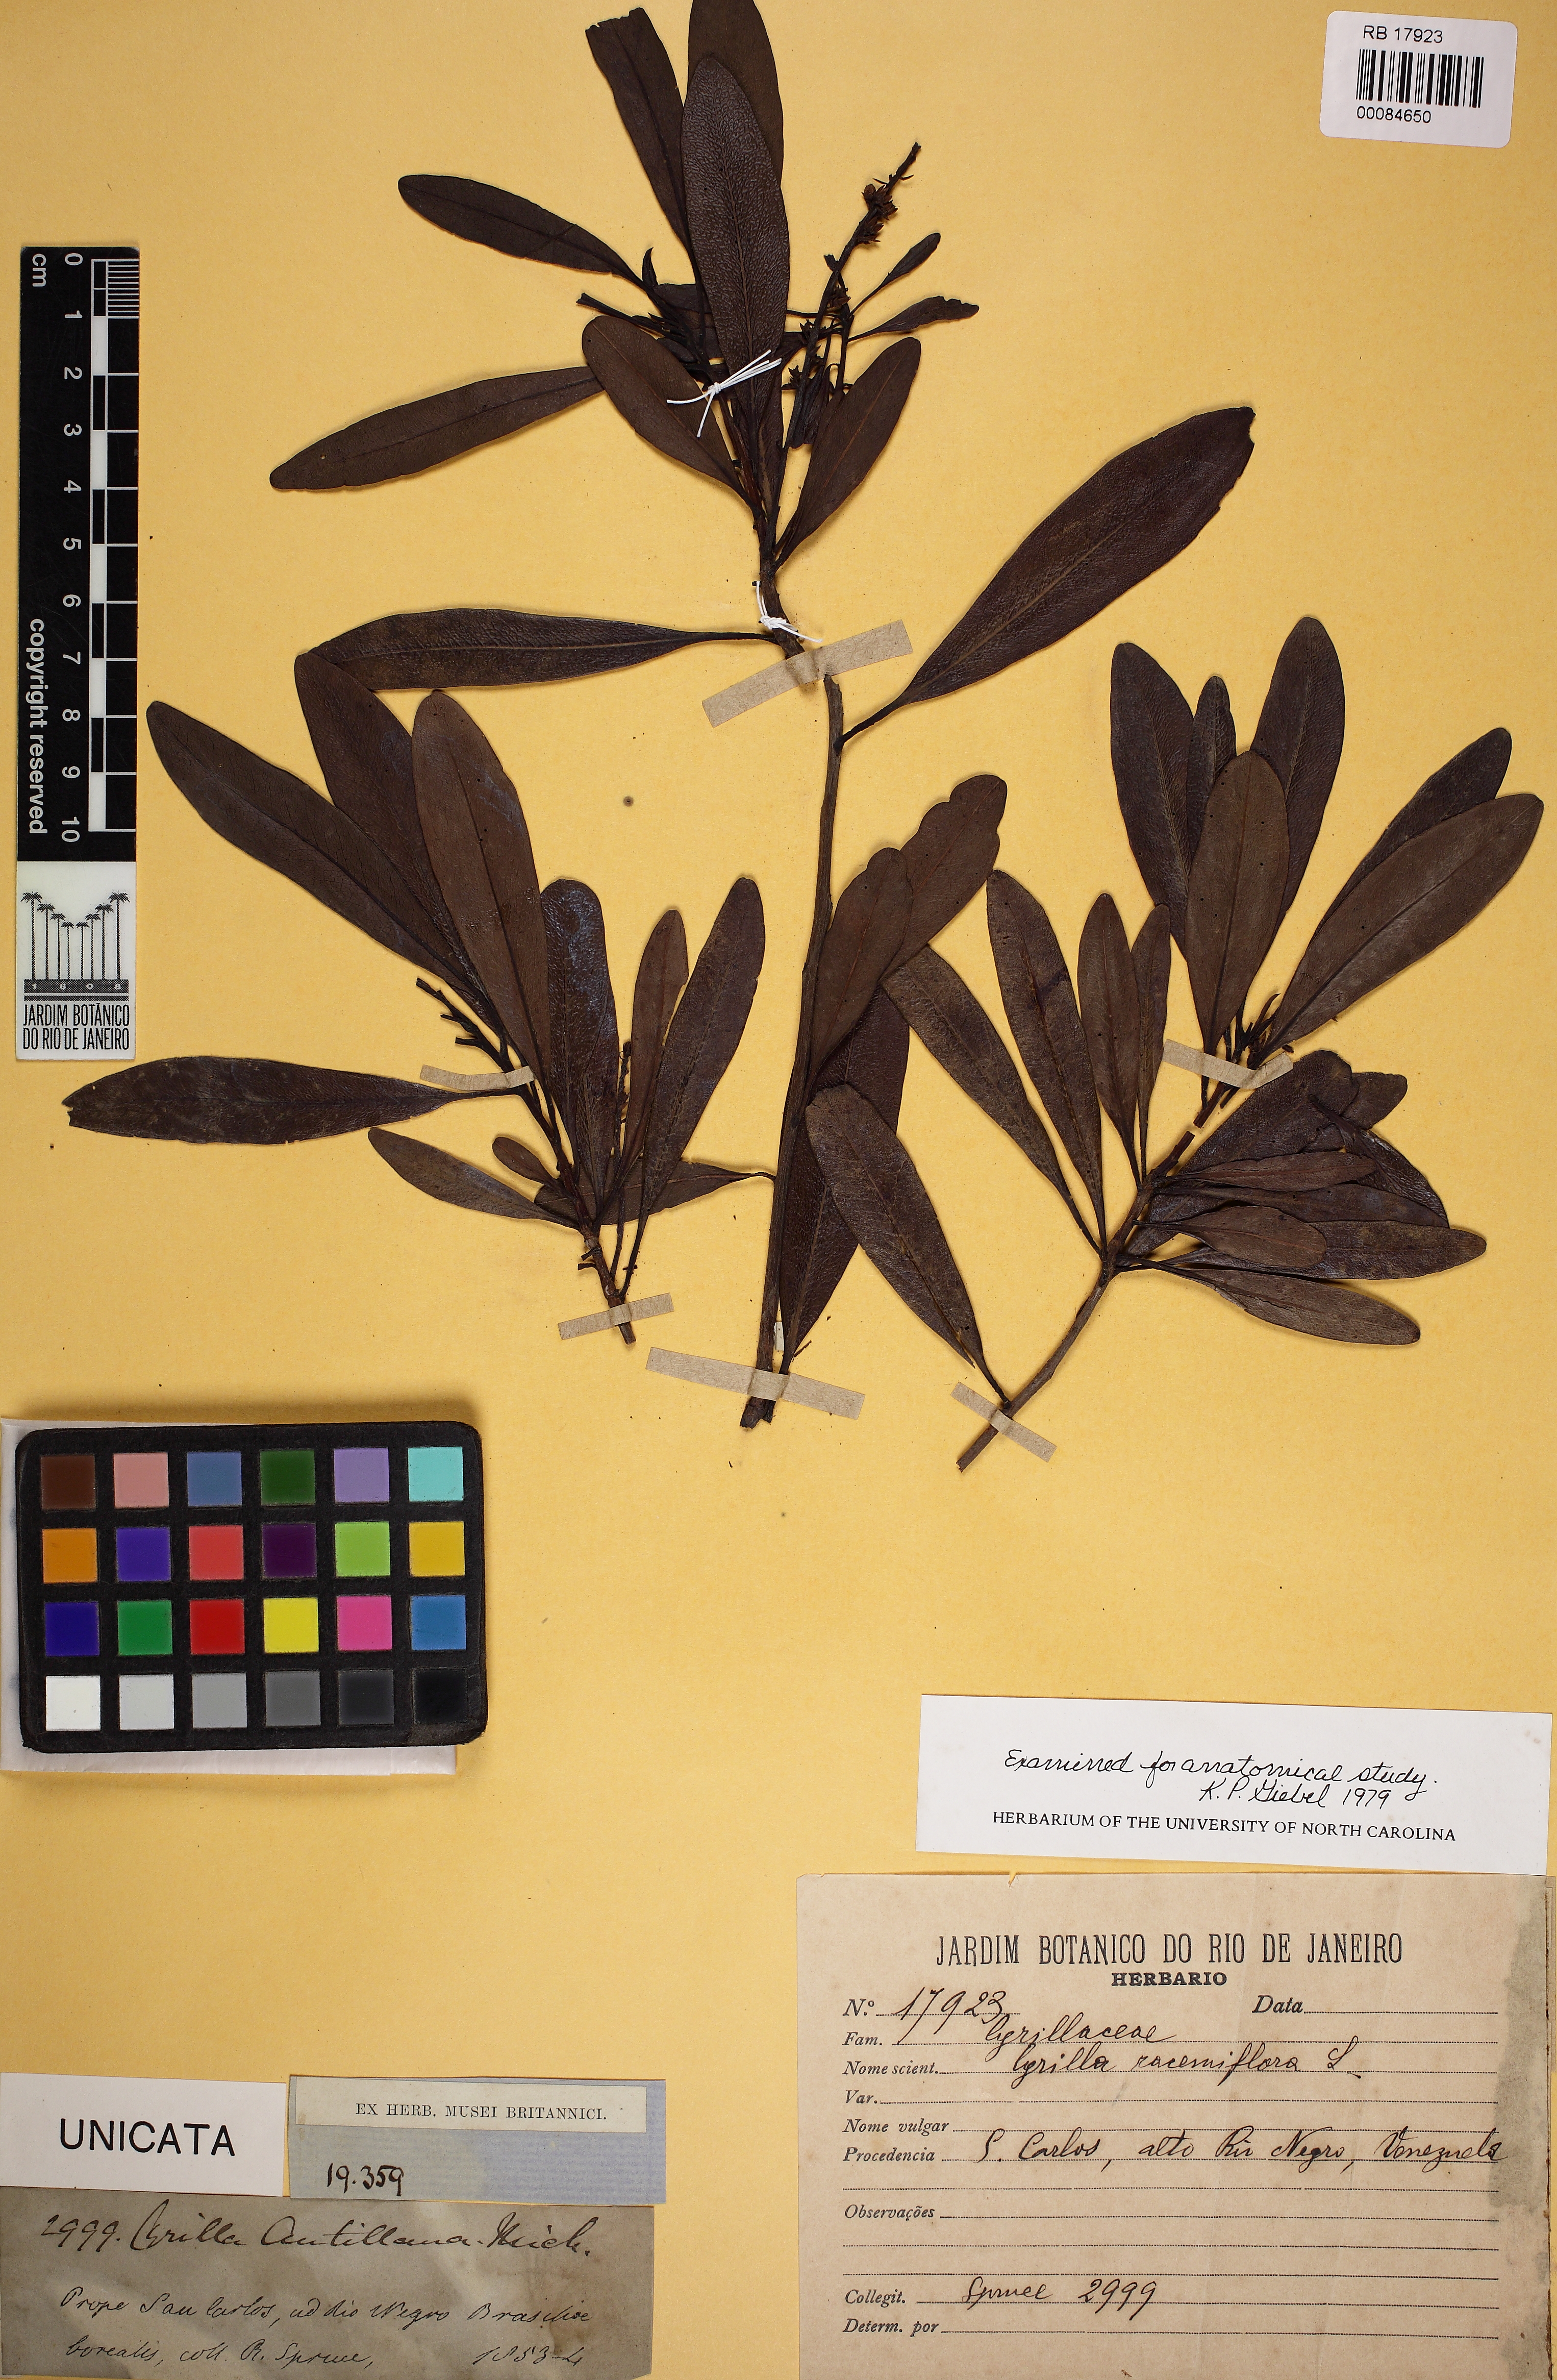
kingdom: Plantae
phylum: Tracheophyta
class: Magnoliopsida
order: Ericales
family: Cyrillaceae
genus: Cyrilla
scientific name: Cyrilla racemiflora
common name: Black titi
